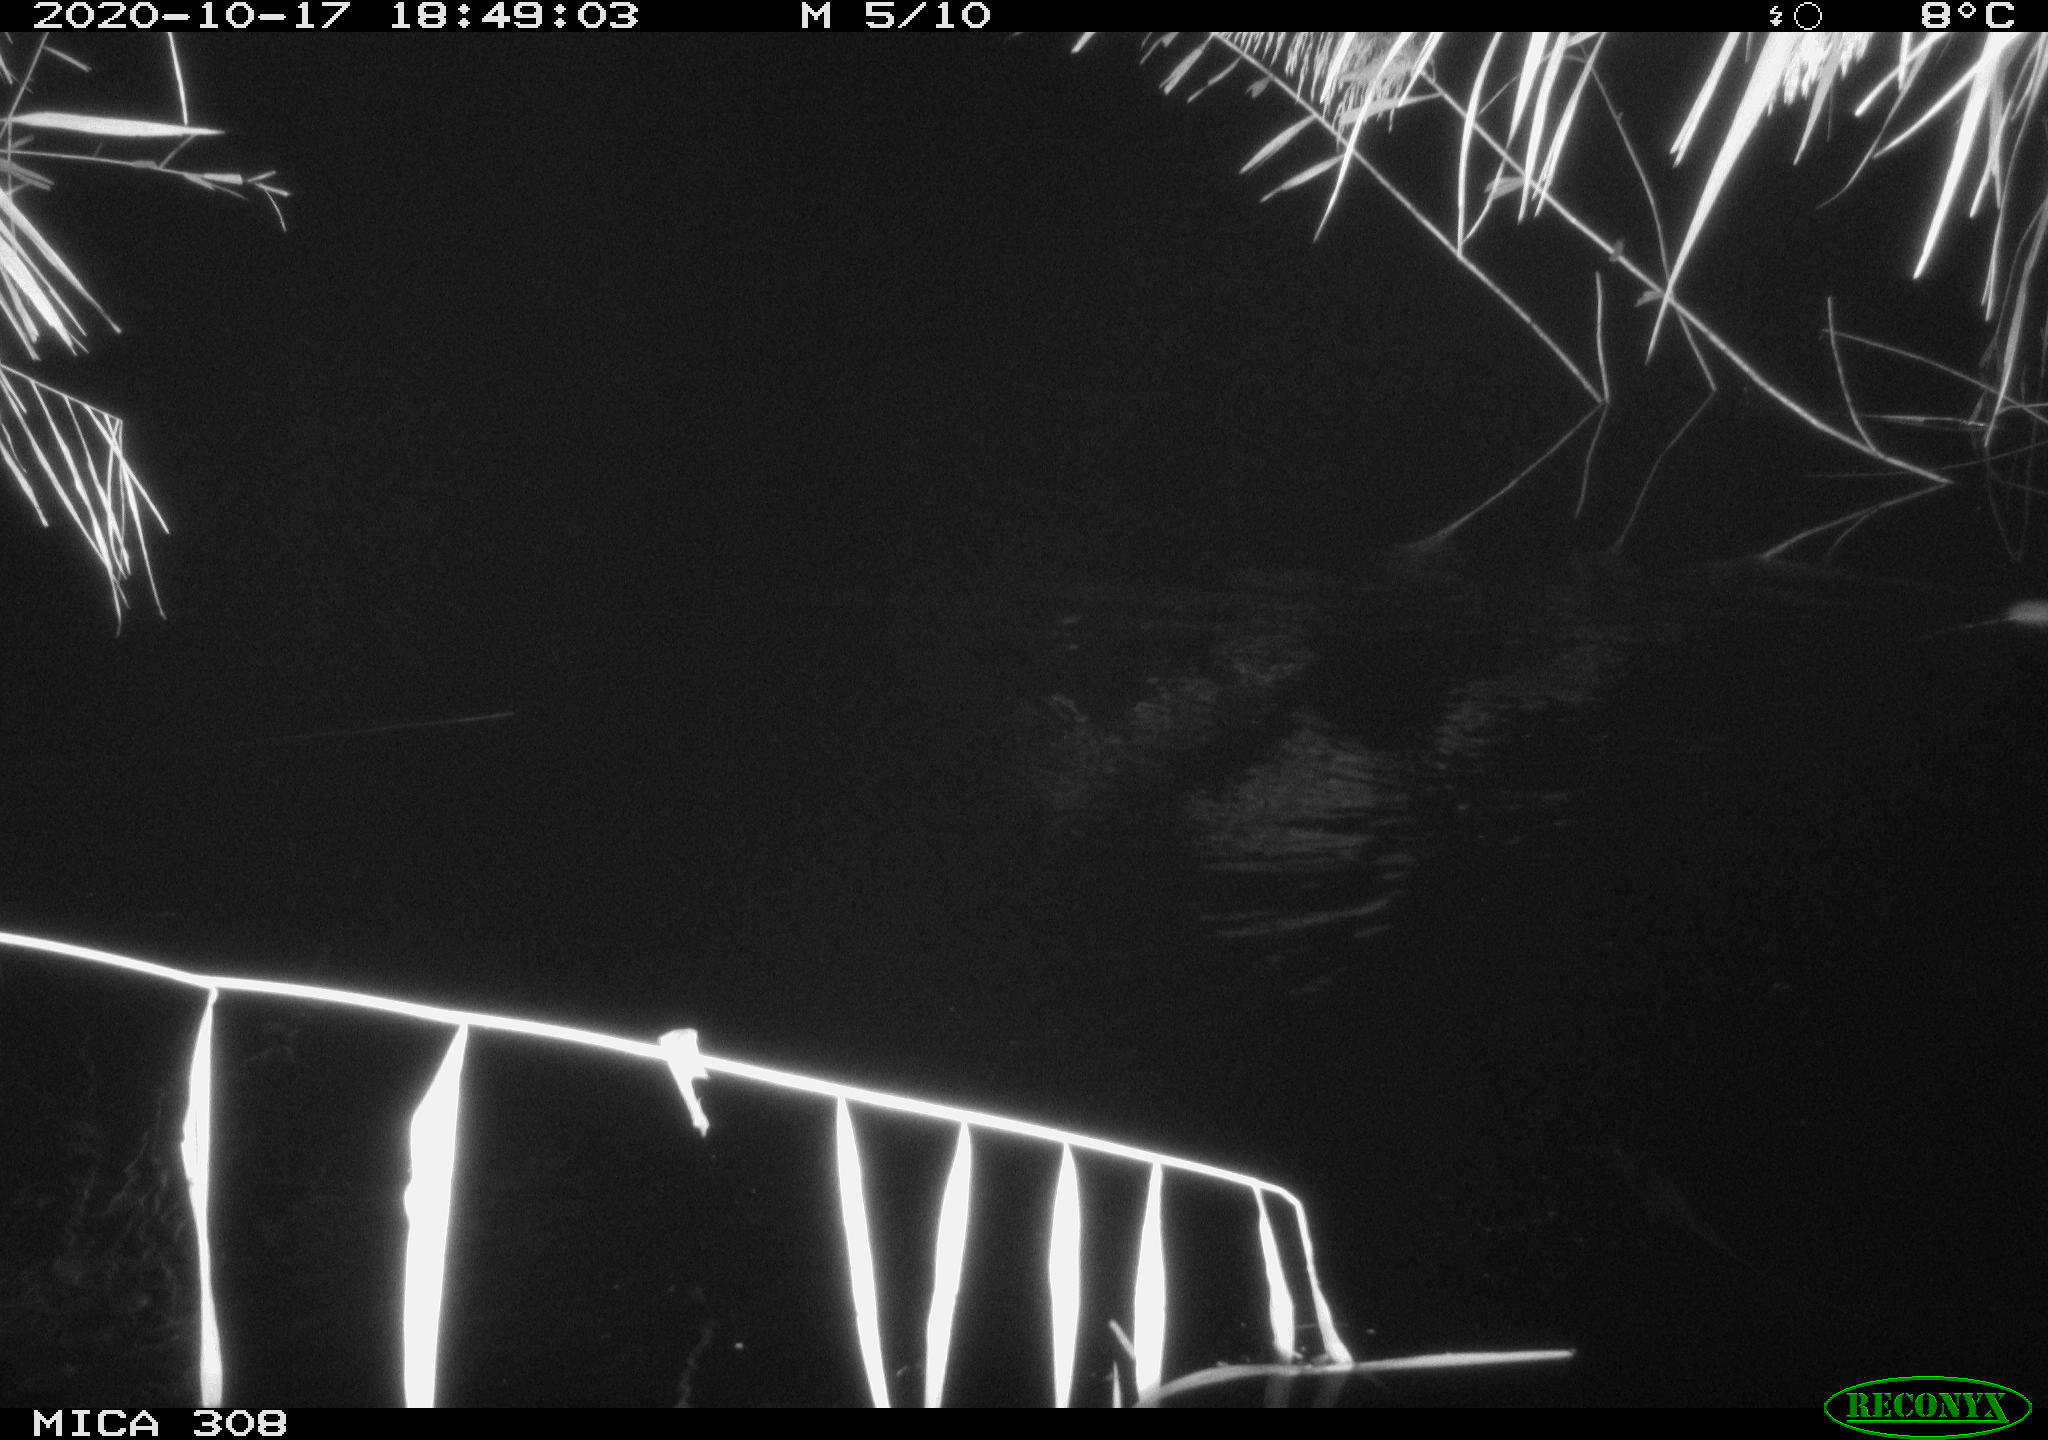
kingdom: Animalia
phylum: Chordata
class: Mammalia
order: Rodentia
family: Muridae
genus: Rattus
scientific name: Rattus norvegicus
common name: Brown rat
